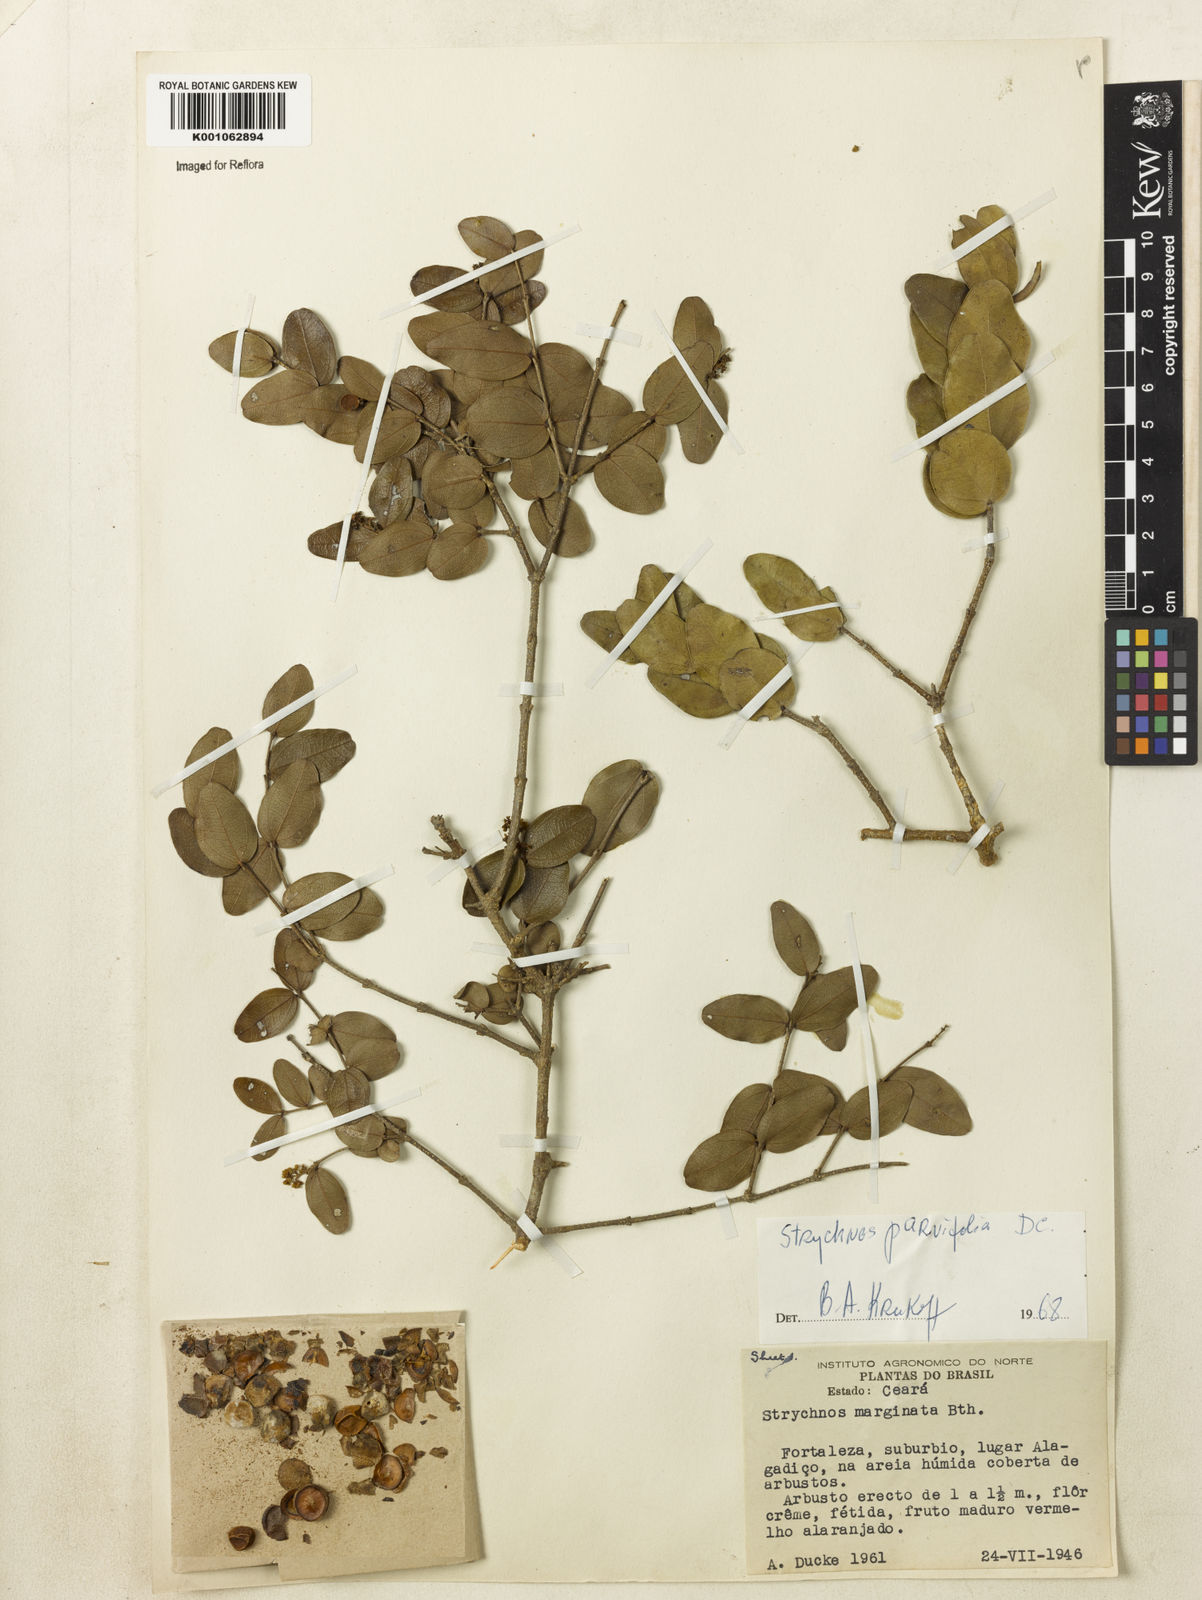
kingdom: Plantae
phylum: Tracheophyta
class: Magnoliopsida
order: Gentianales
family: Loganiaceae
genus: Strychnos
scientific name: Strychnos parvifolia
